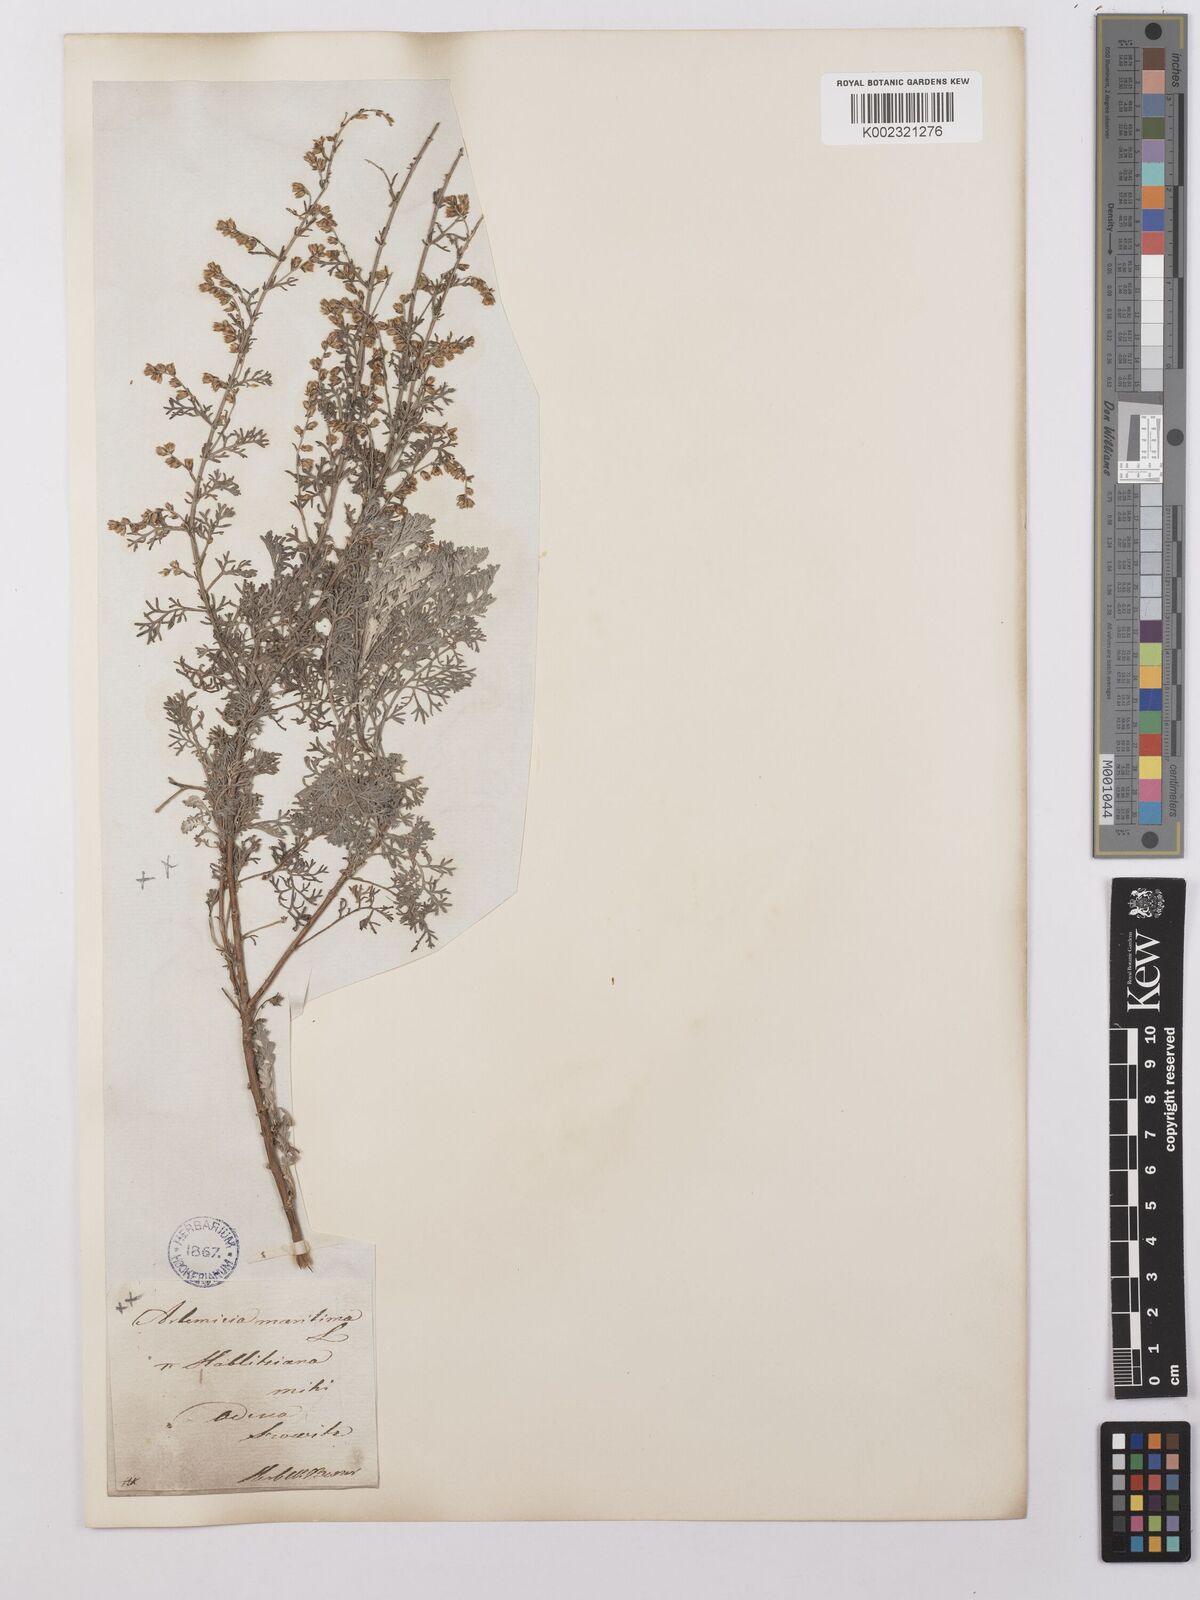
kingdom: Plantae
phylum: Tracheophyta
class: Magnoliopsida
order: Asterales
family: Asteraceae
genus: Artemisia
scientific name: Artemisia nutans
